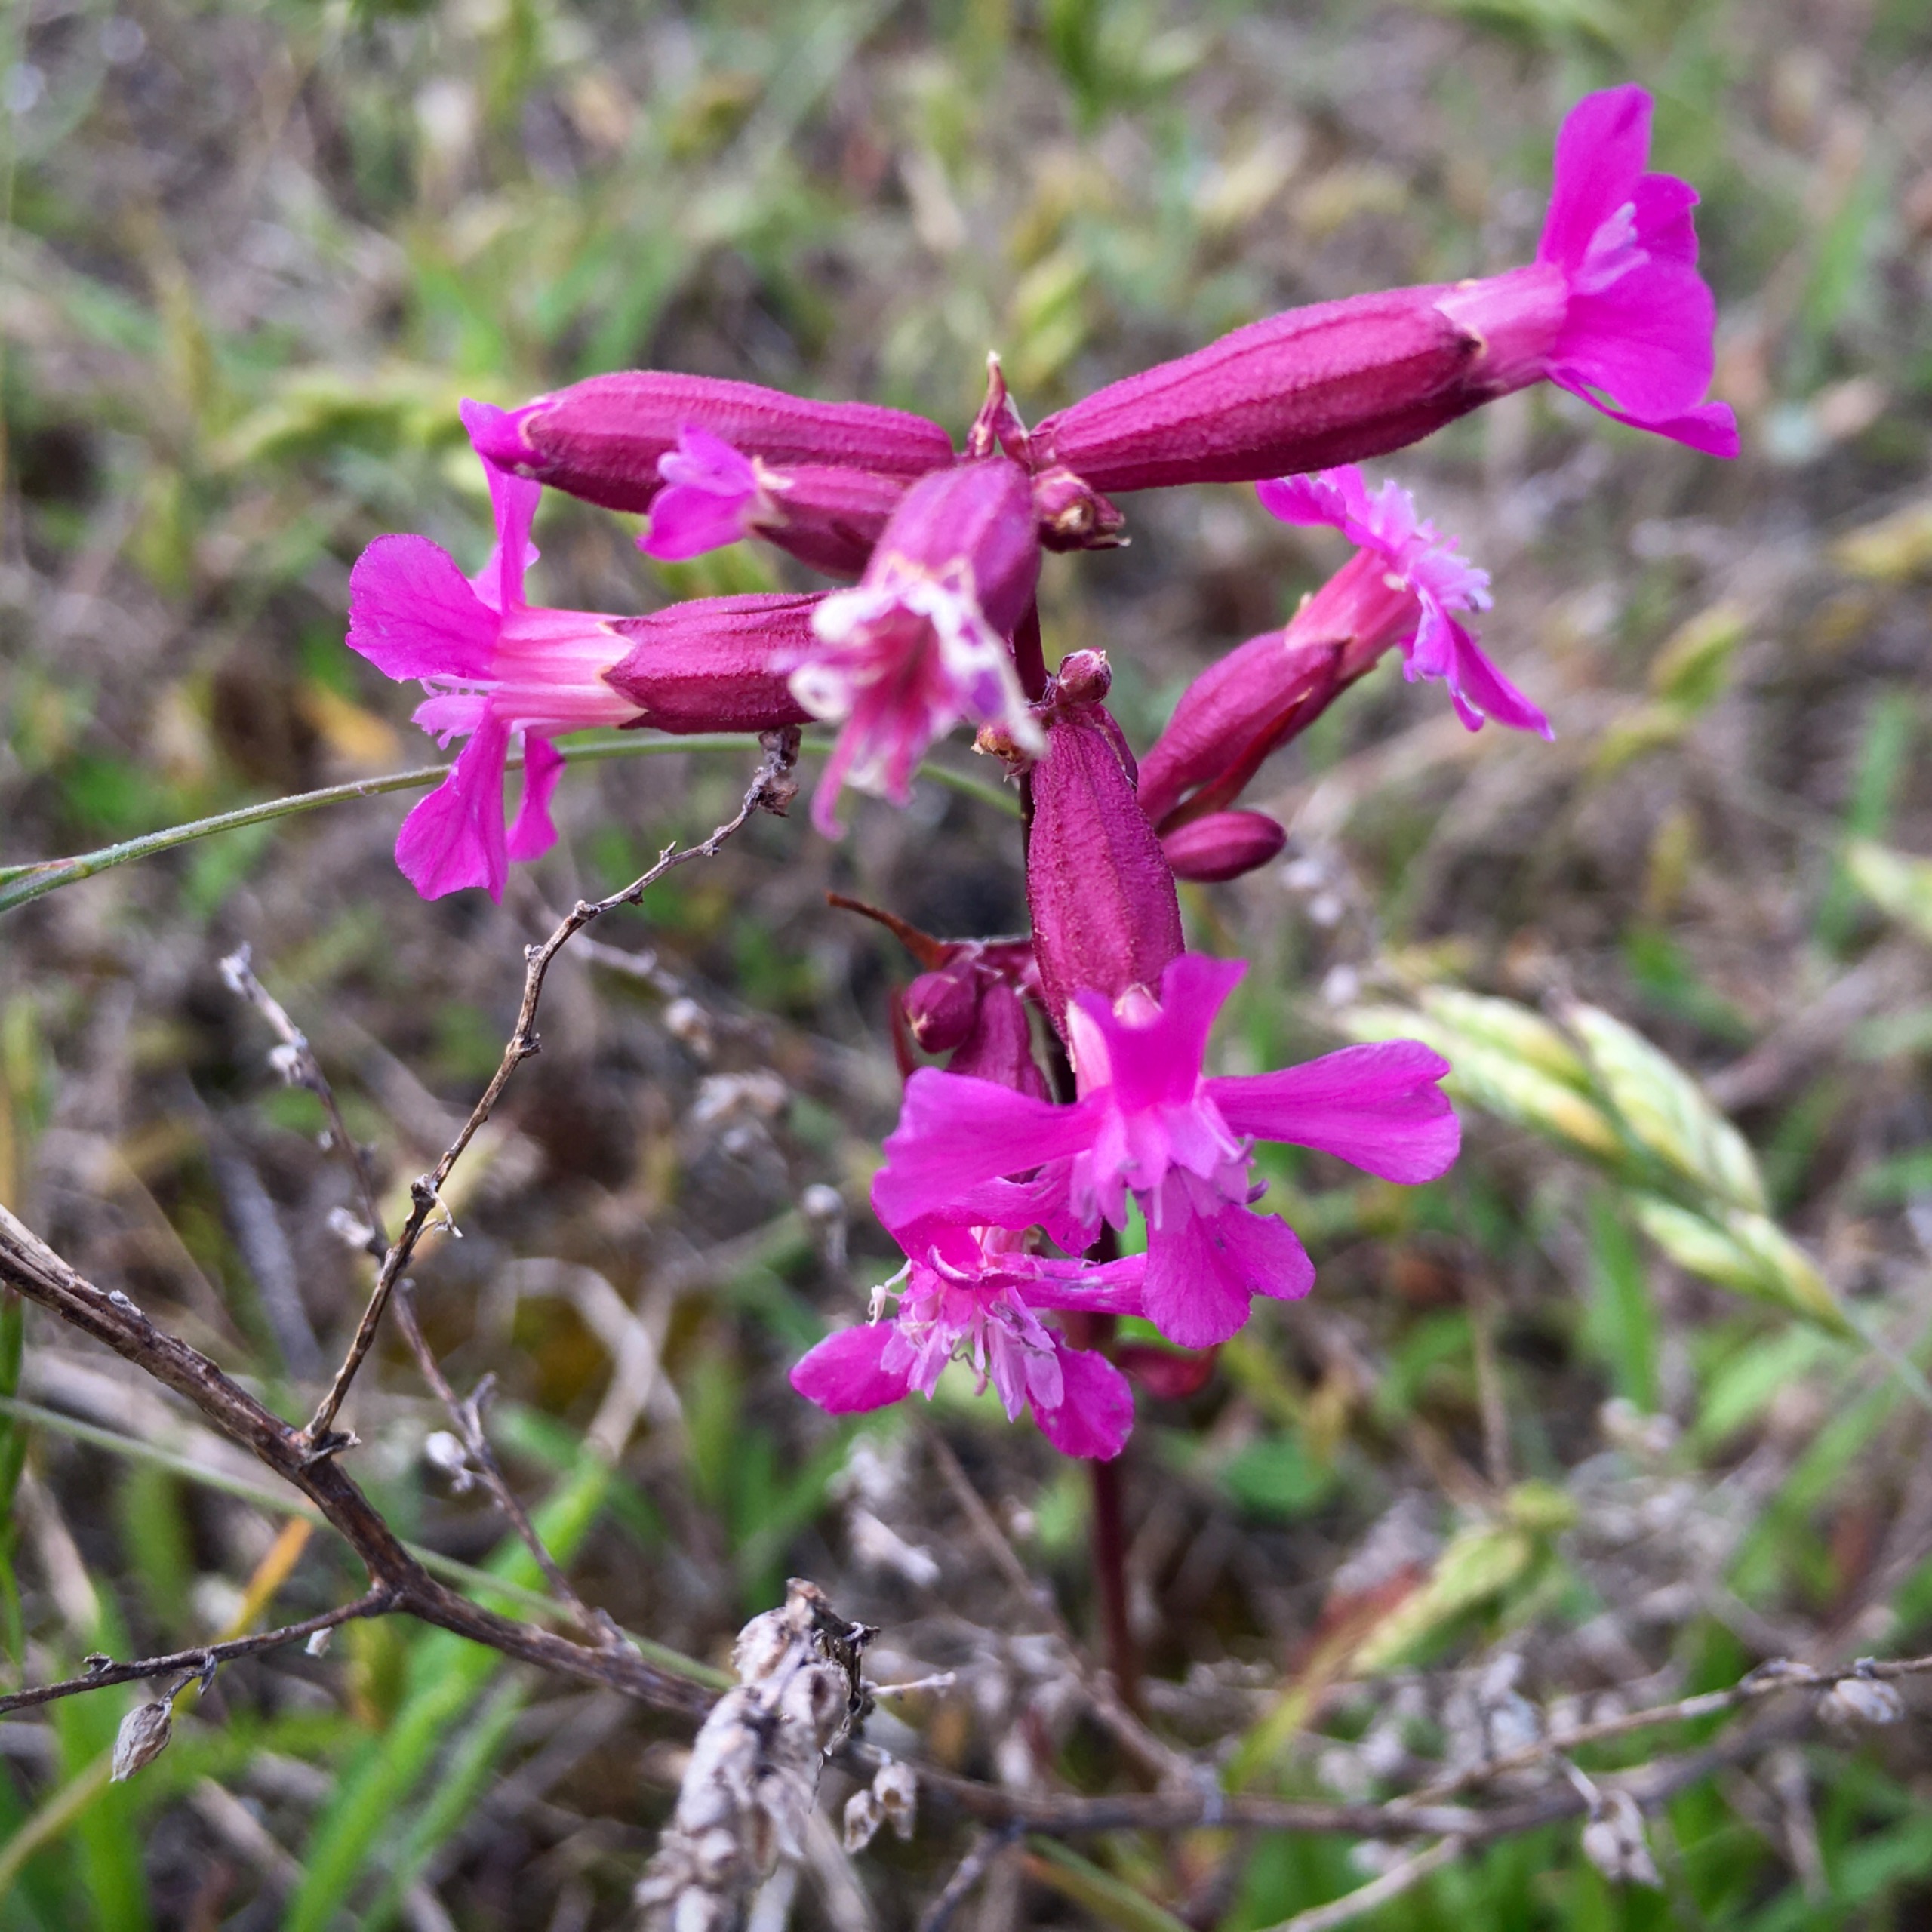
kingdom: Plantae
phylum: Tracheophyta
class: Magnoliopsida
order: Caryophyllales
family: Caryophyllaceae
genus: Viscaria
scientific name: Viscaria vulgaris
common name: Tjærenellike
